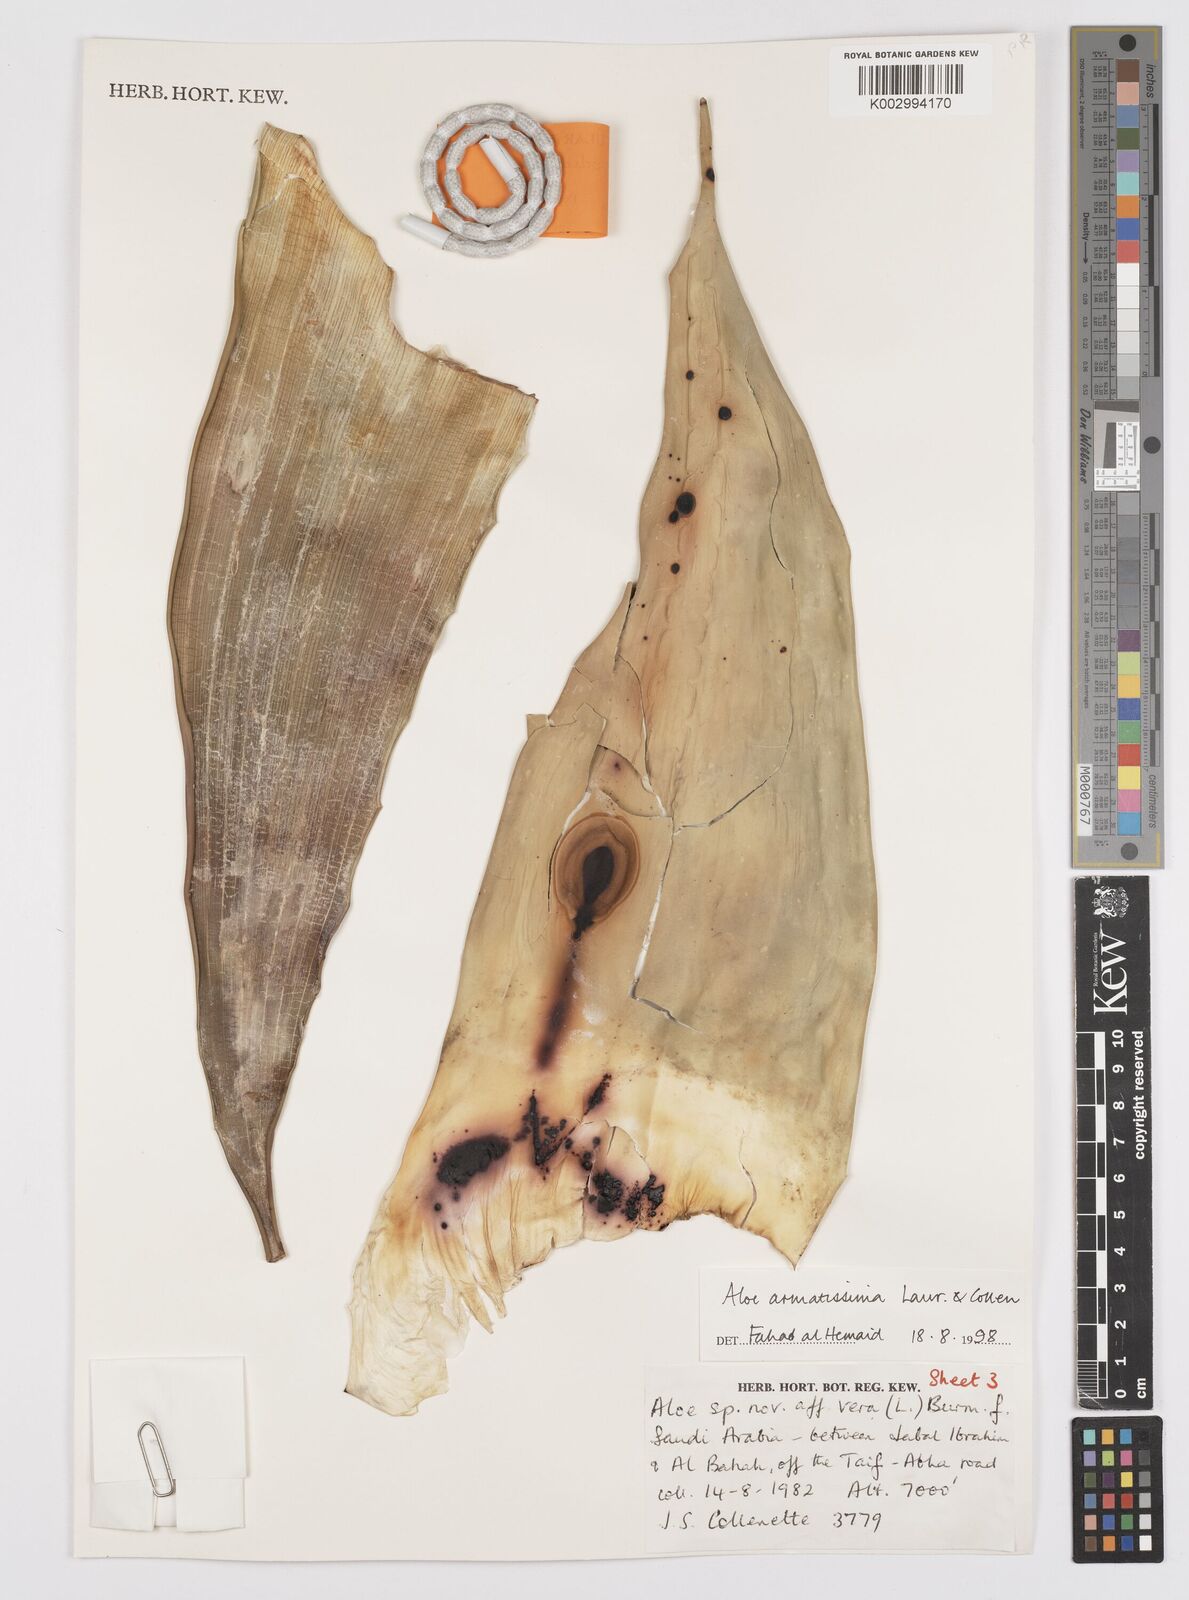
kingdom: Plantae
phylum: Tracheophyta
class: Liliopsida
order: Asparagales
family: Asphodelaceae
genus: Aloe
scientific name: Aloe armatissima
